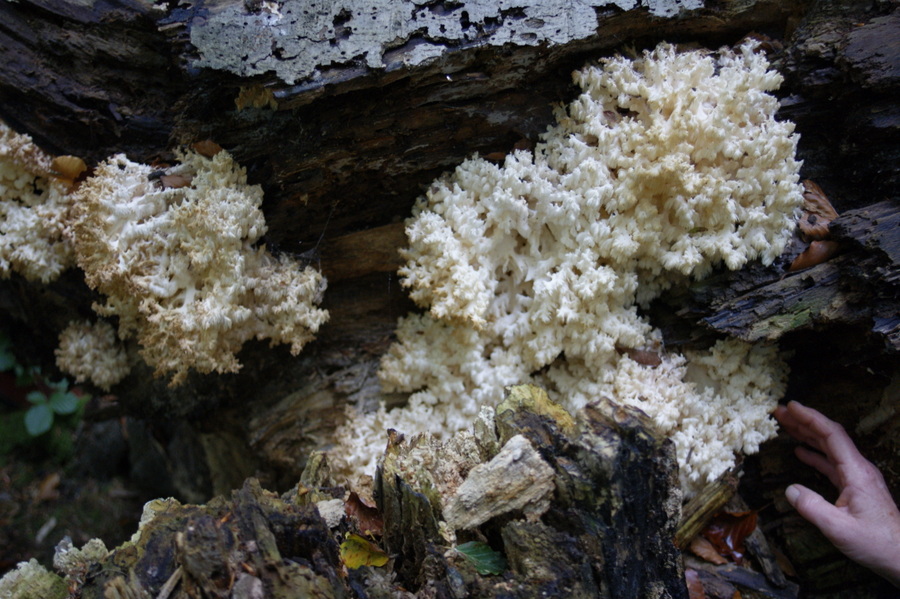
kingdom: Fungi
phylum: Basidiomycota
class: Agaricomycetes
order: Russulales
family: Hericiaceae
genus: Hericium
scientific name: Hericium coralloides
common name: koralpigsvamp
